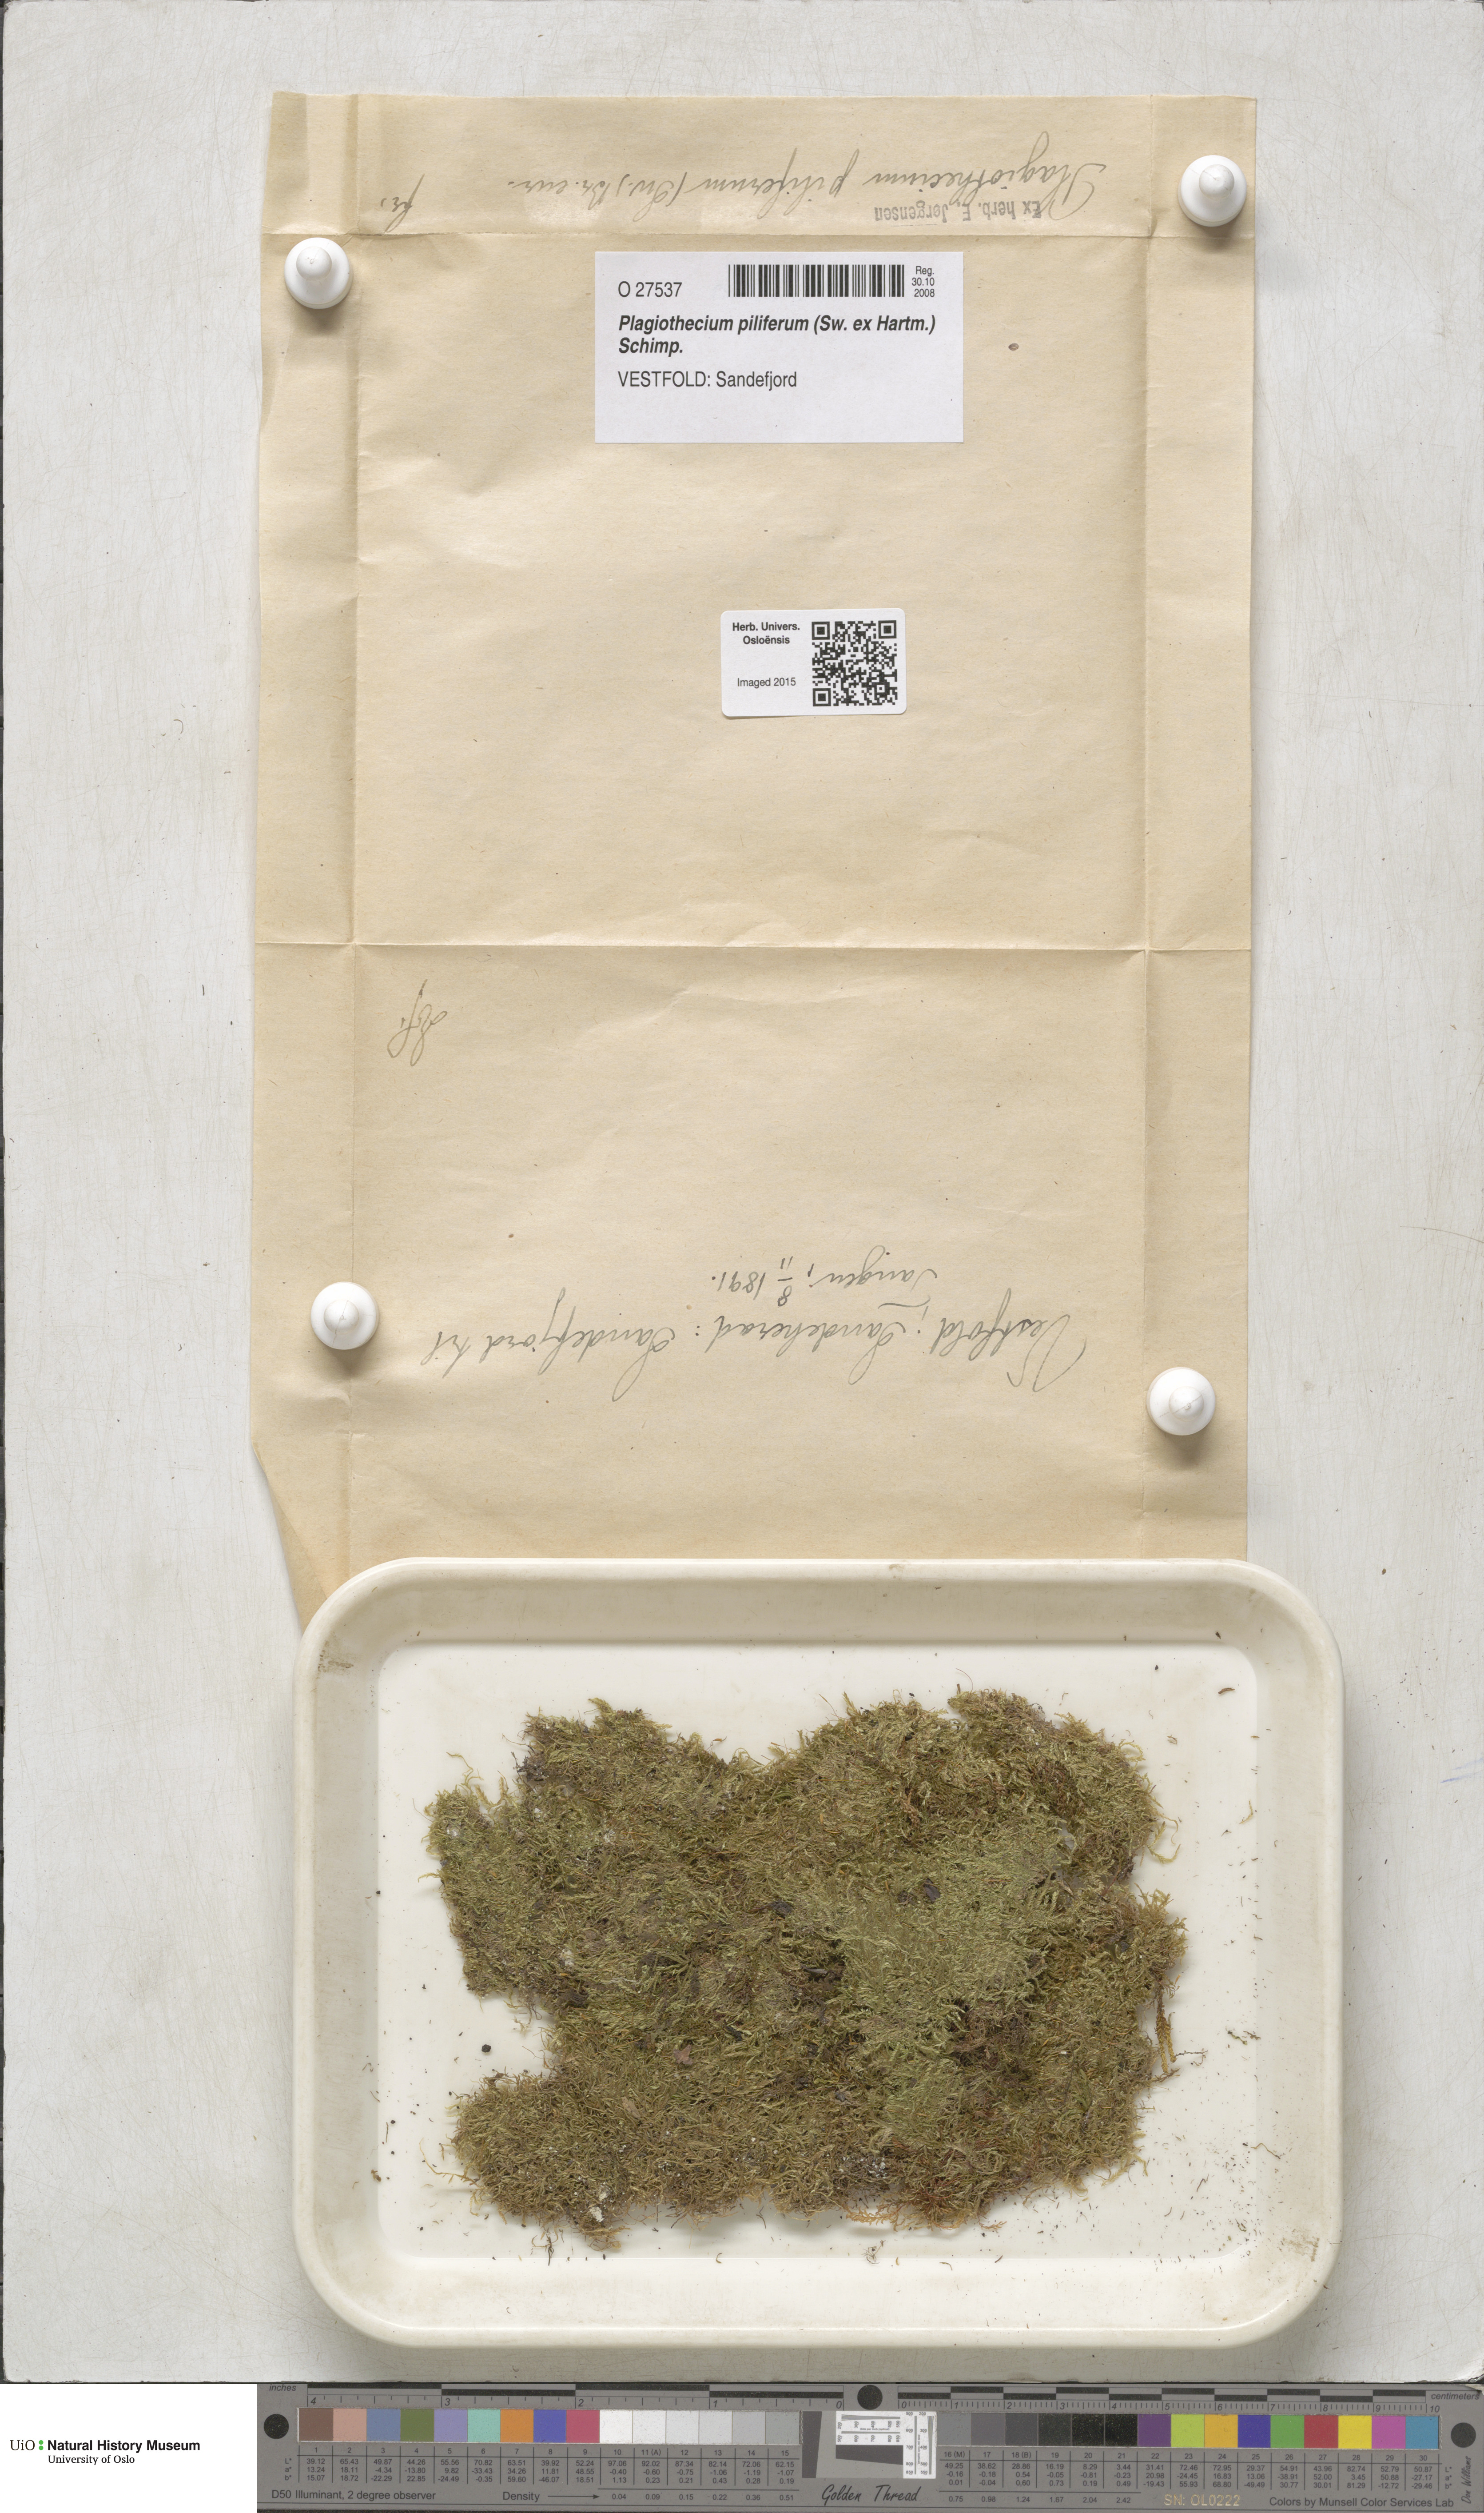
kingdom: Plantae
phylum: Bryophyta
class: Bryopsida
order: Hypnales
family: Plagiotheciaceae
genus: Rectithecium
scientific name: Rectithecium piliferum
